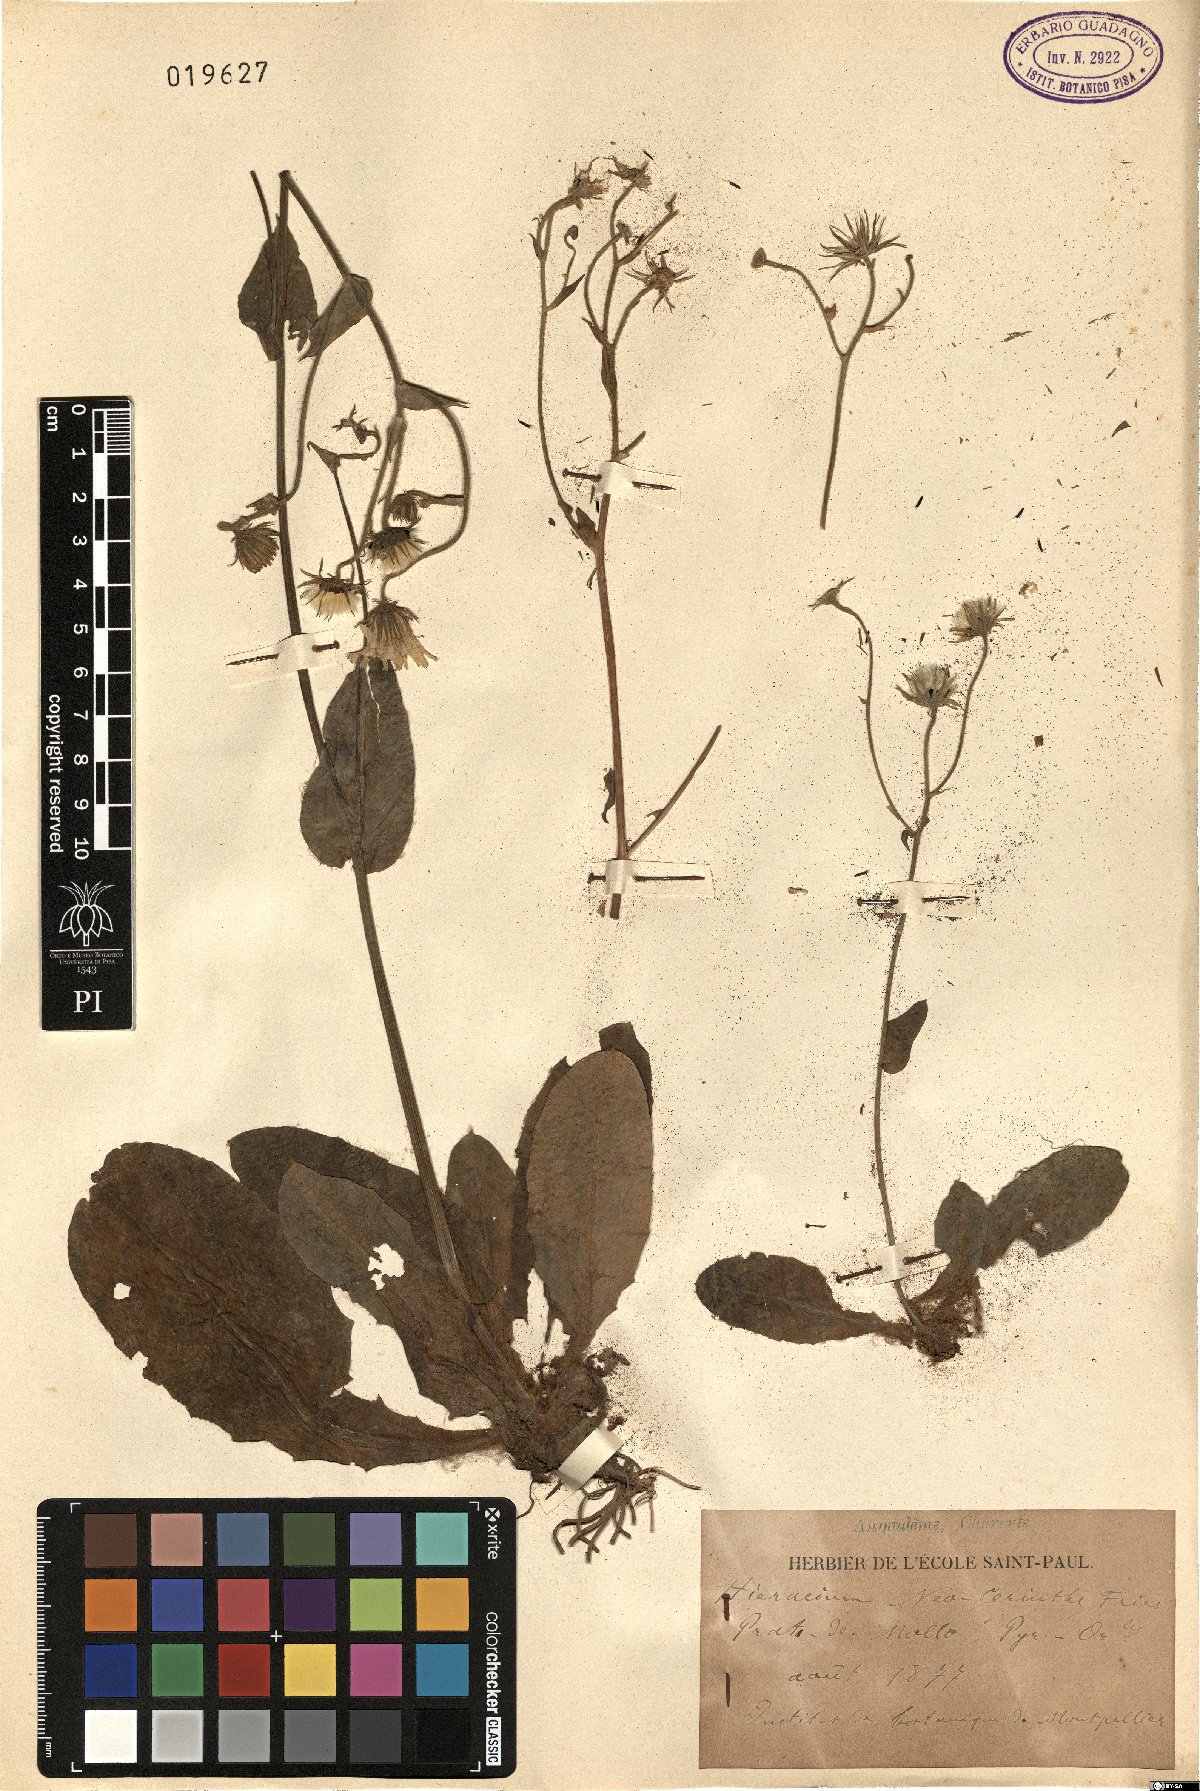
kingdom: Plantae
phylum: Tracheophyta
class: Magnoliopsida
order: Asterales
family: Asteraceae
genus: Hieracium
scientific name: Hieracium neocerinthe
